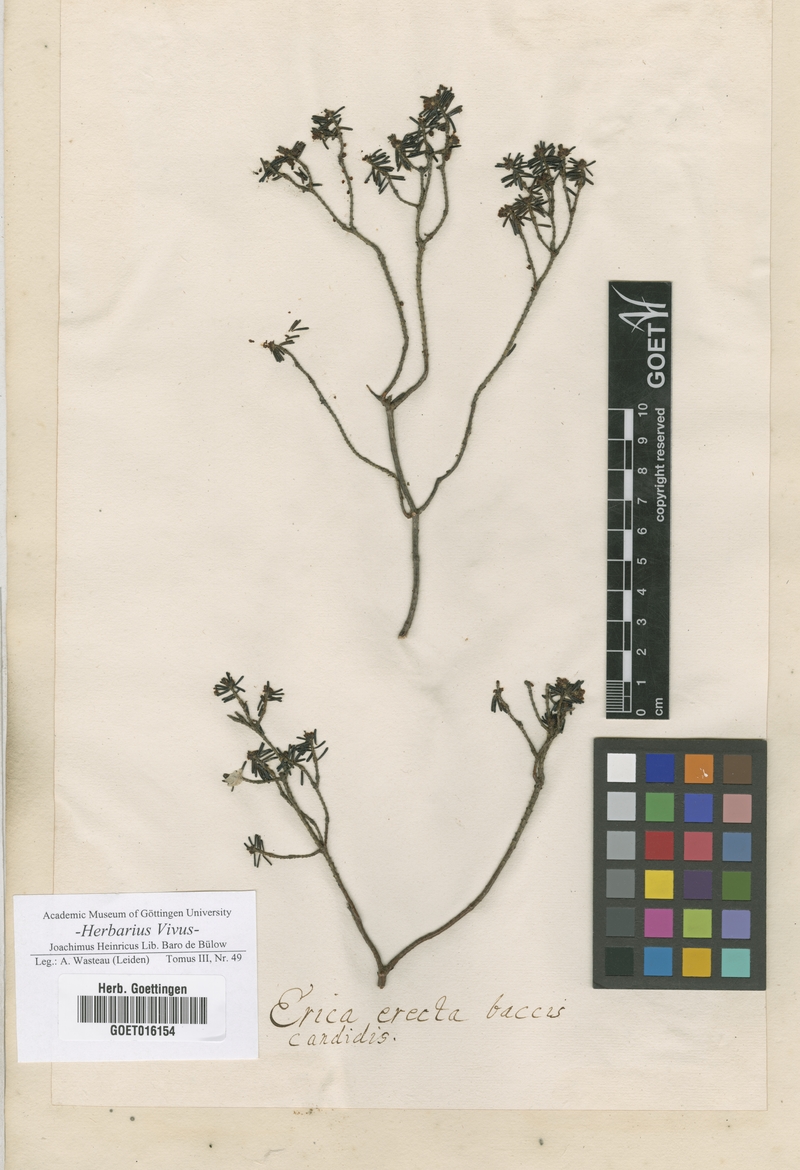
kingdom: Plantae
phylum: Tracheophyta
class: Magnoliopsida
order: Ericales
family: Ericaceae
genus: Erica
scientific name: Erica
